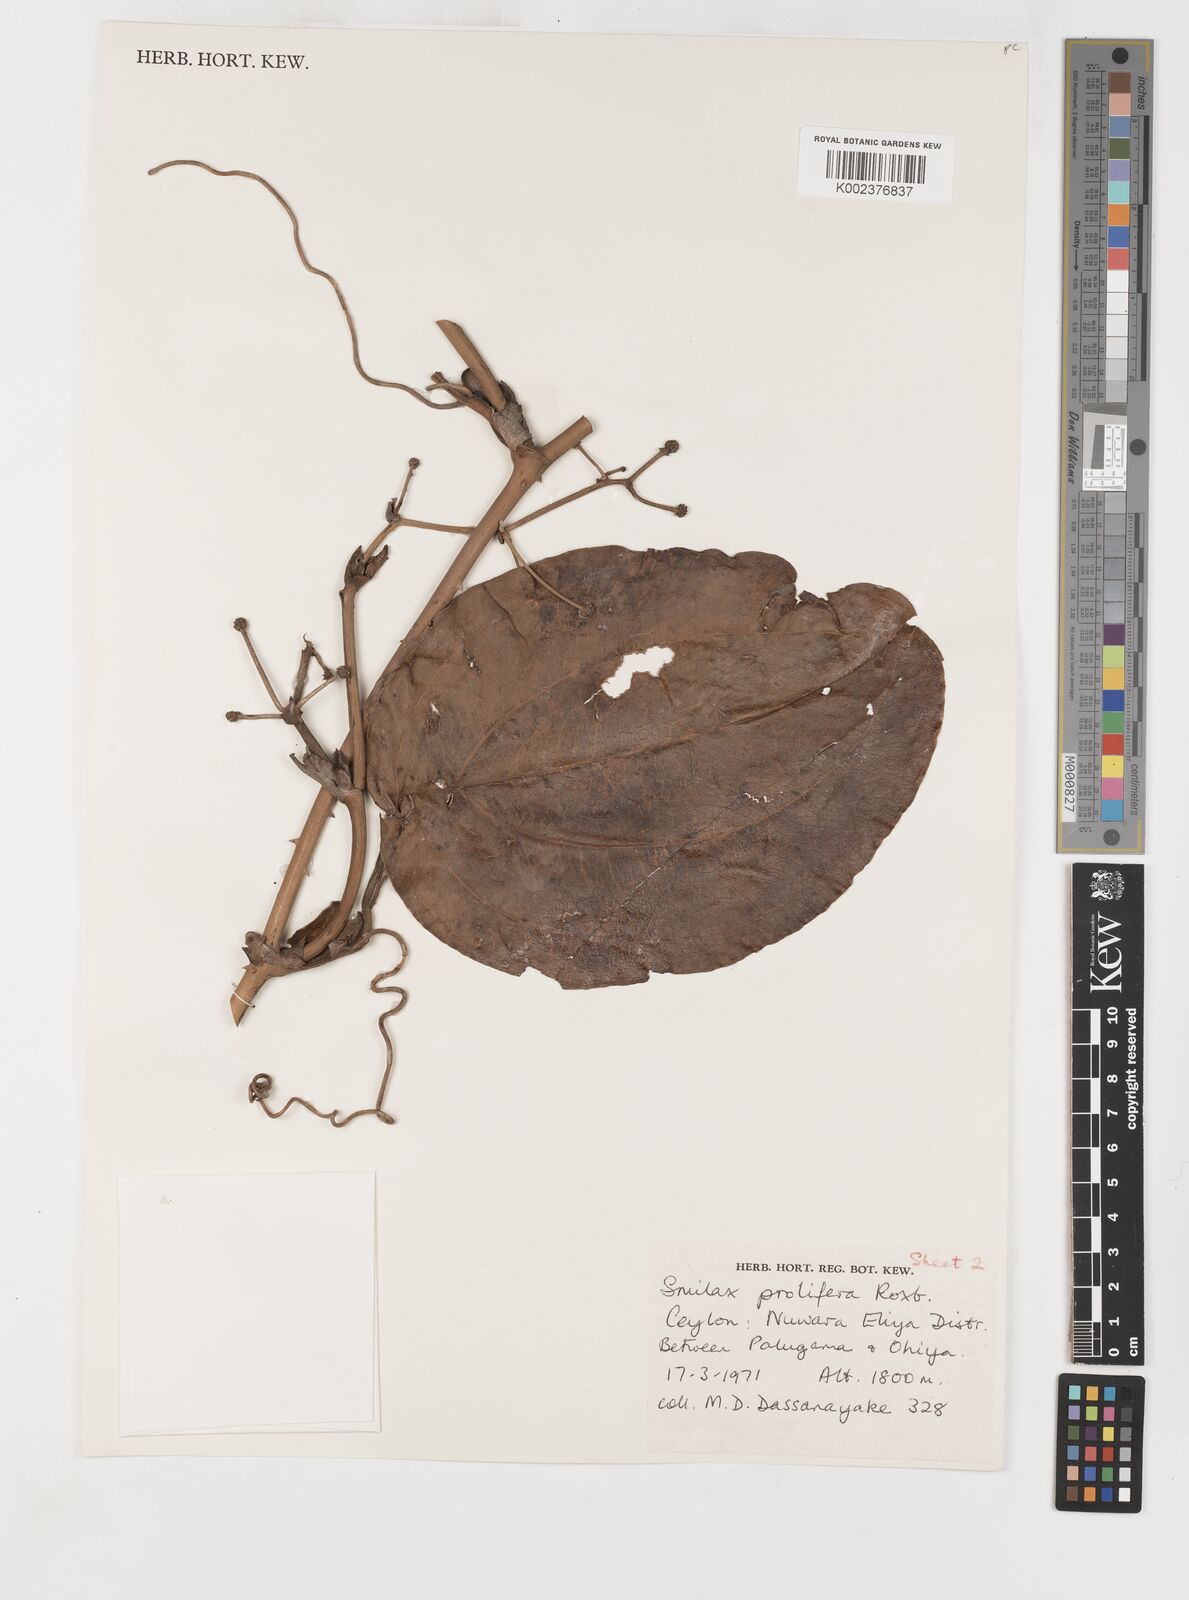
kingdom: Plantae
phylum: Tracheophyta
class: Liliopsida
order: Liliales
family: Smilacaceae
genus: Smilax
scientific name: Smilax prolifera
